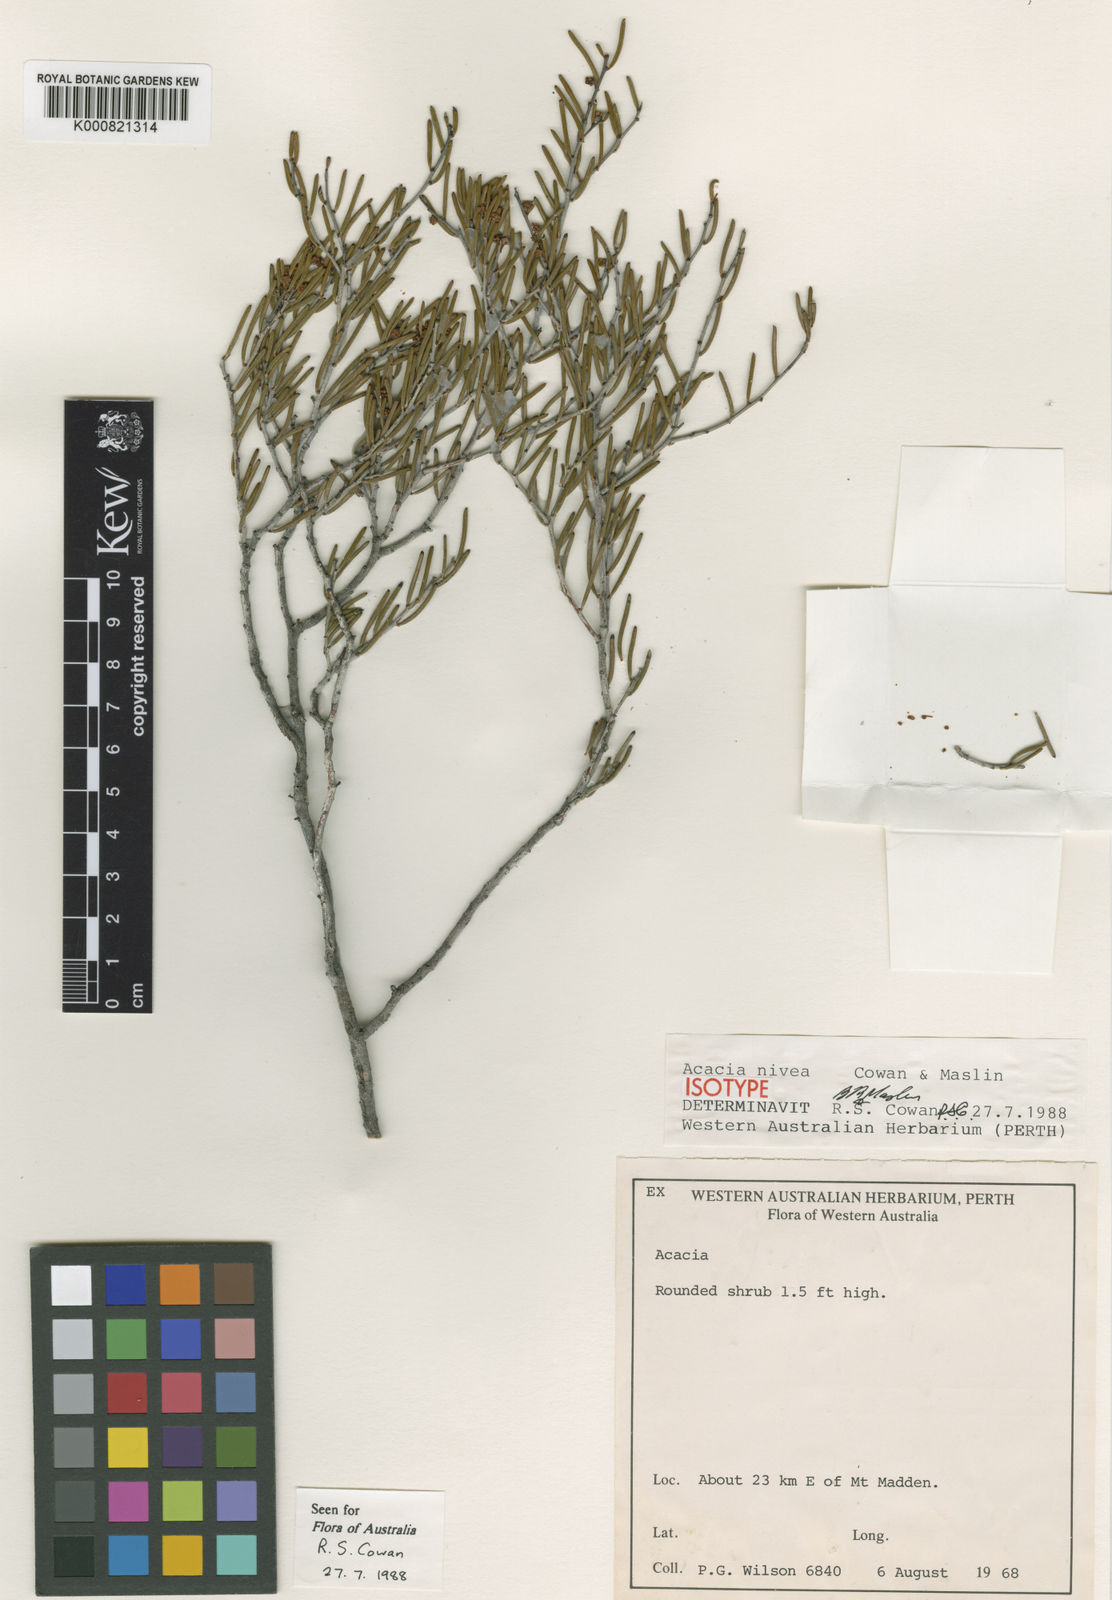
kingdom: Plantae
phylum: Tracheophyta
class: Magnoliopsida
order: Fabales
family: Fabaceae
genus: Acacia
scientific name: Acacia nivea
